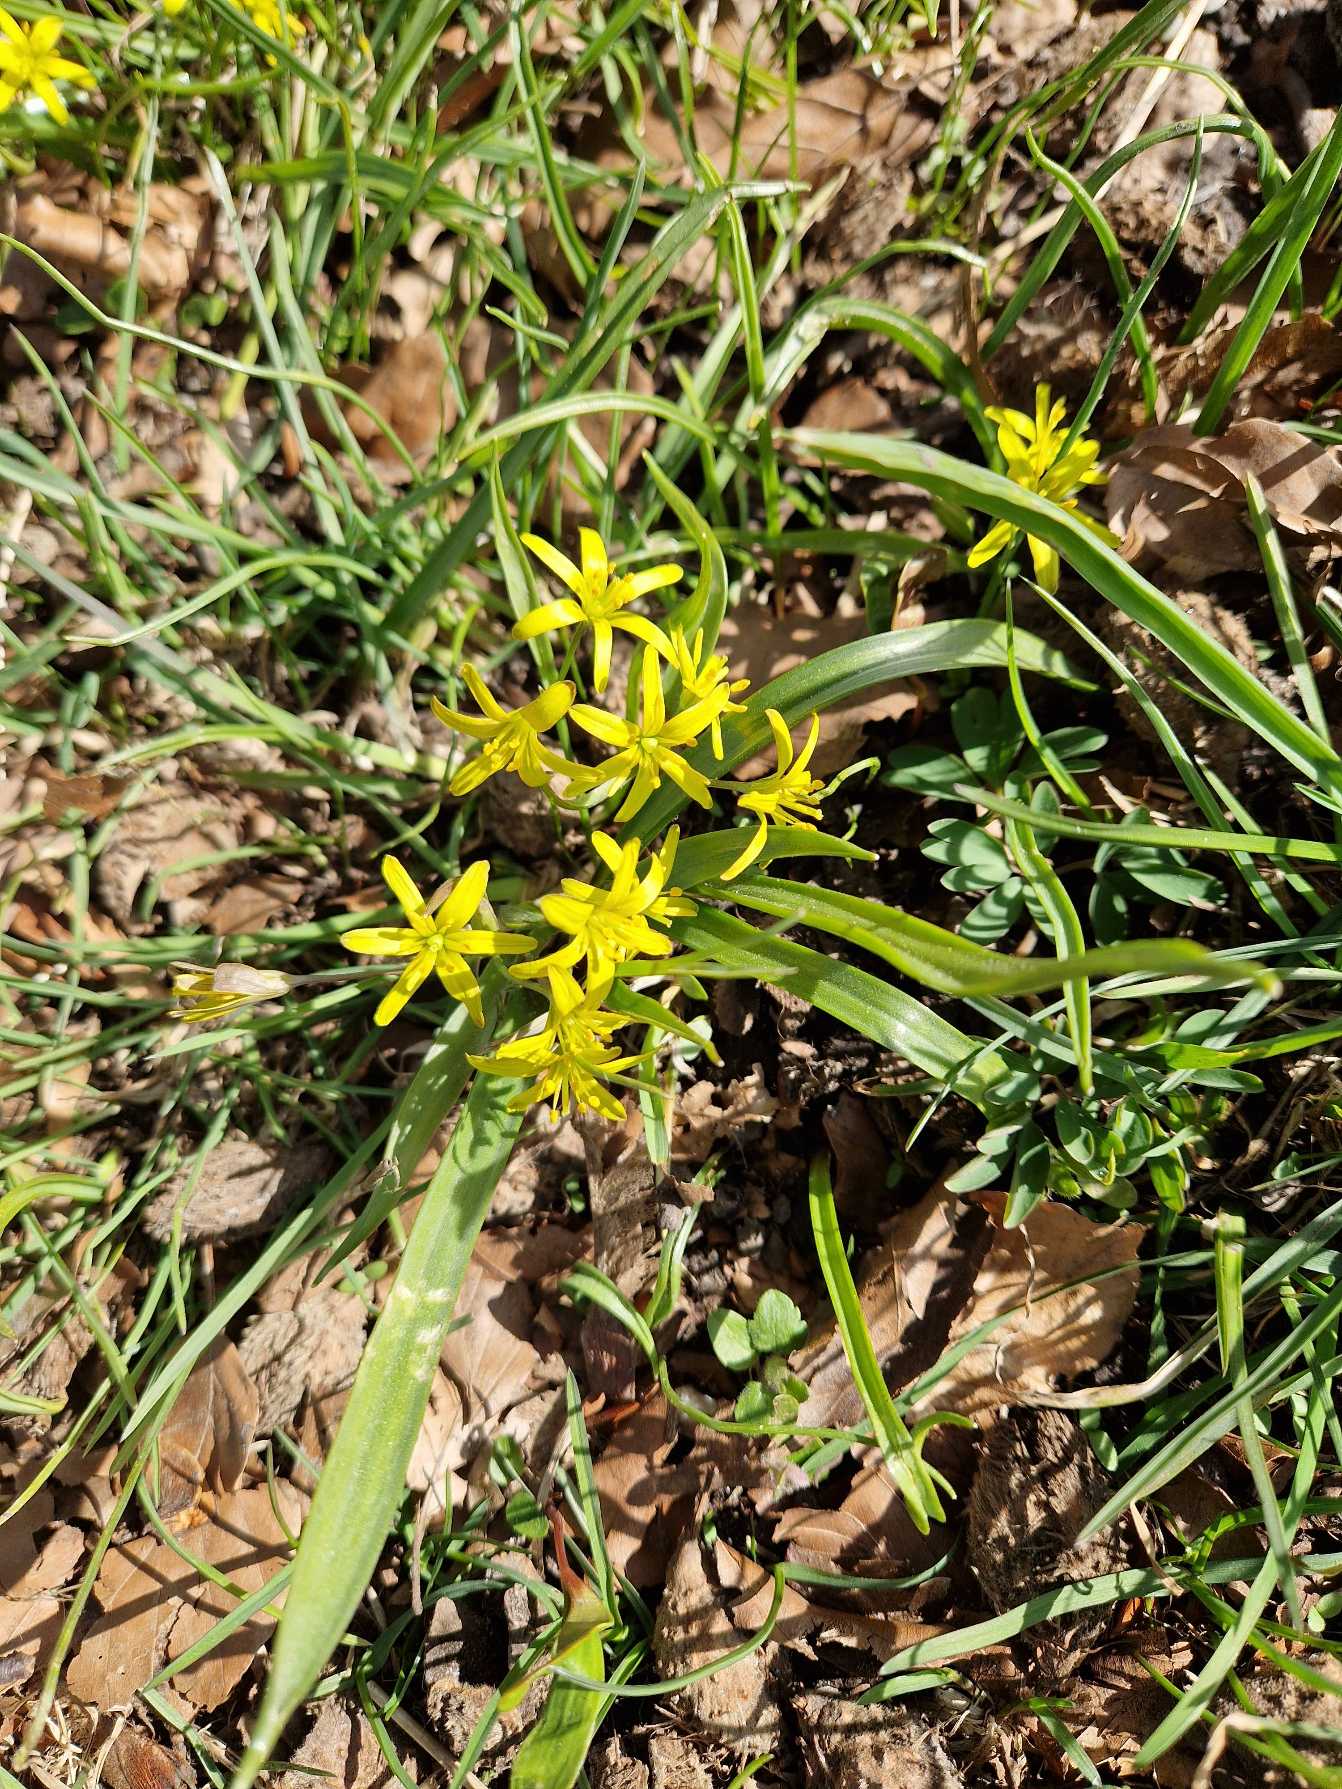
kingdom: Plantae
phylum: Tracheophyta
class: Liliopsida
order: Liliales
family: Liliaceae
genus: Gagea
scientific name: Gagea lutea
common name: Almindelig guldstjerne
